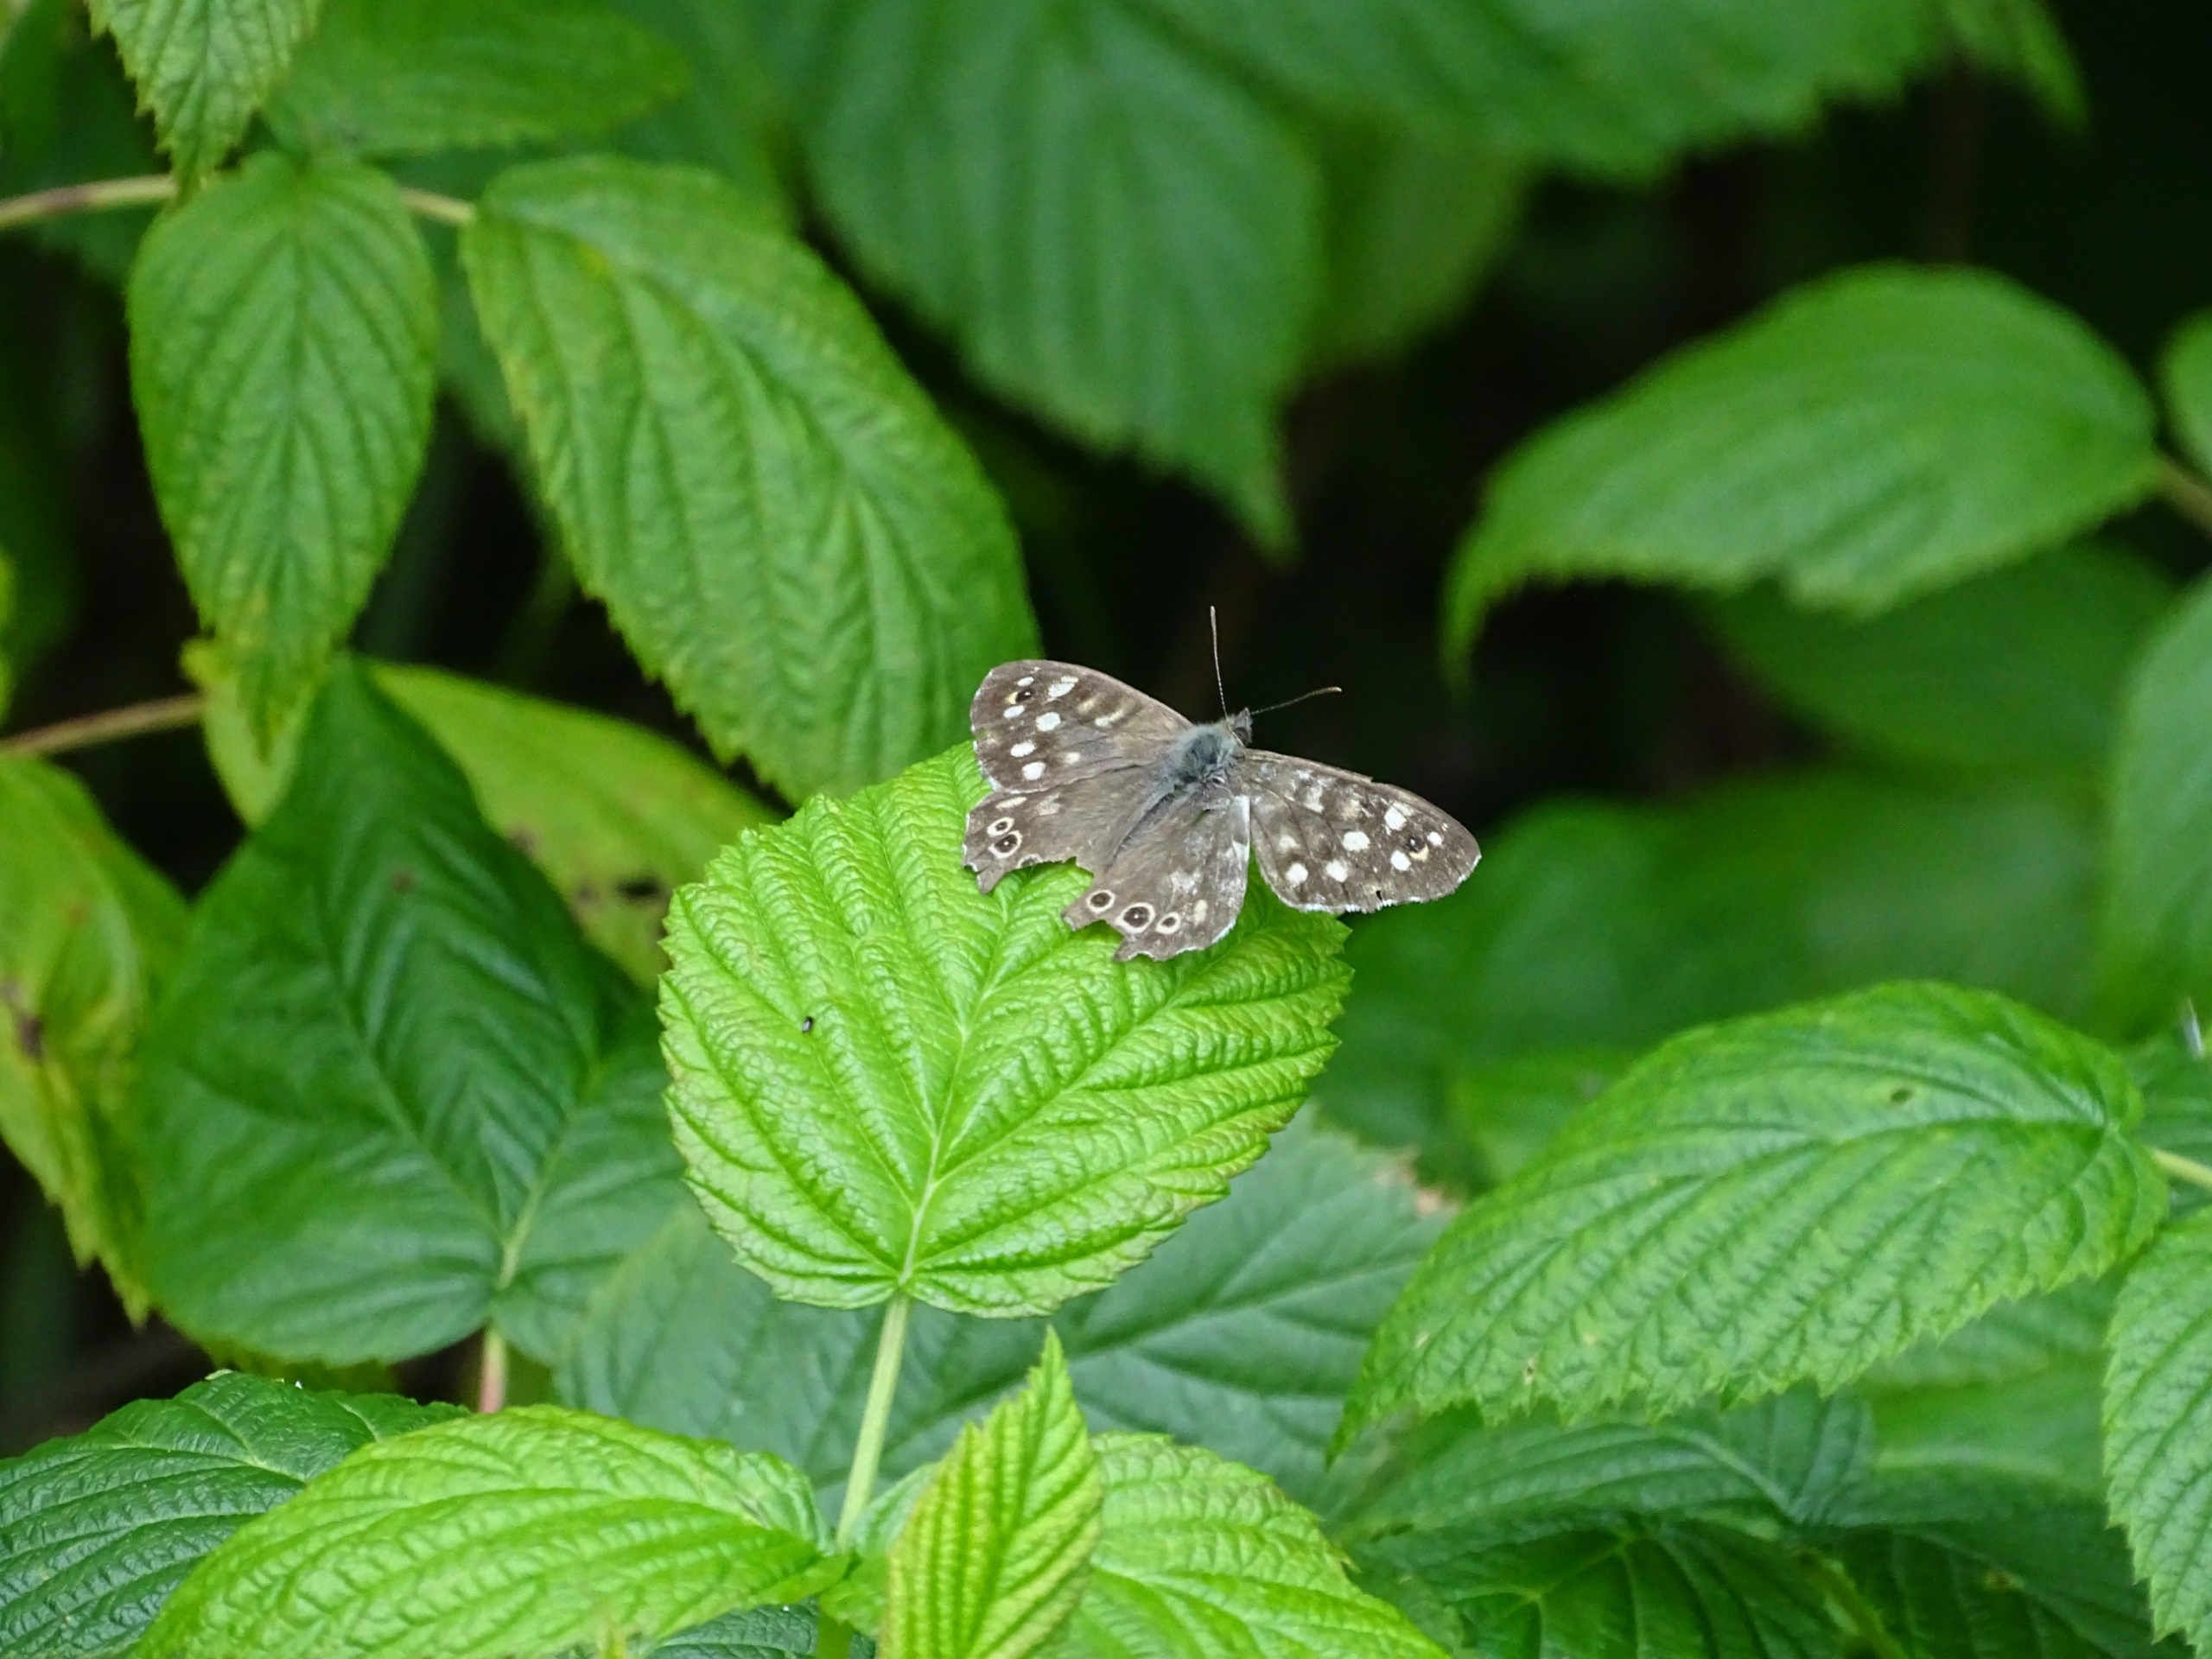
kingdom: Animalia
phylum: Arthropoda
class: Insecta
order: Lepidoptera
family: Nymphalidae
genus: Pararge
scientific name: Pararge aegeria
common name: Skovrandøje
